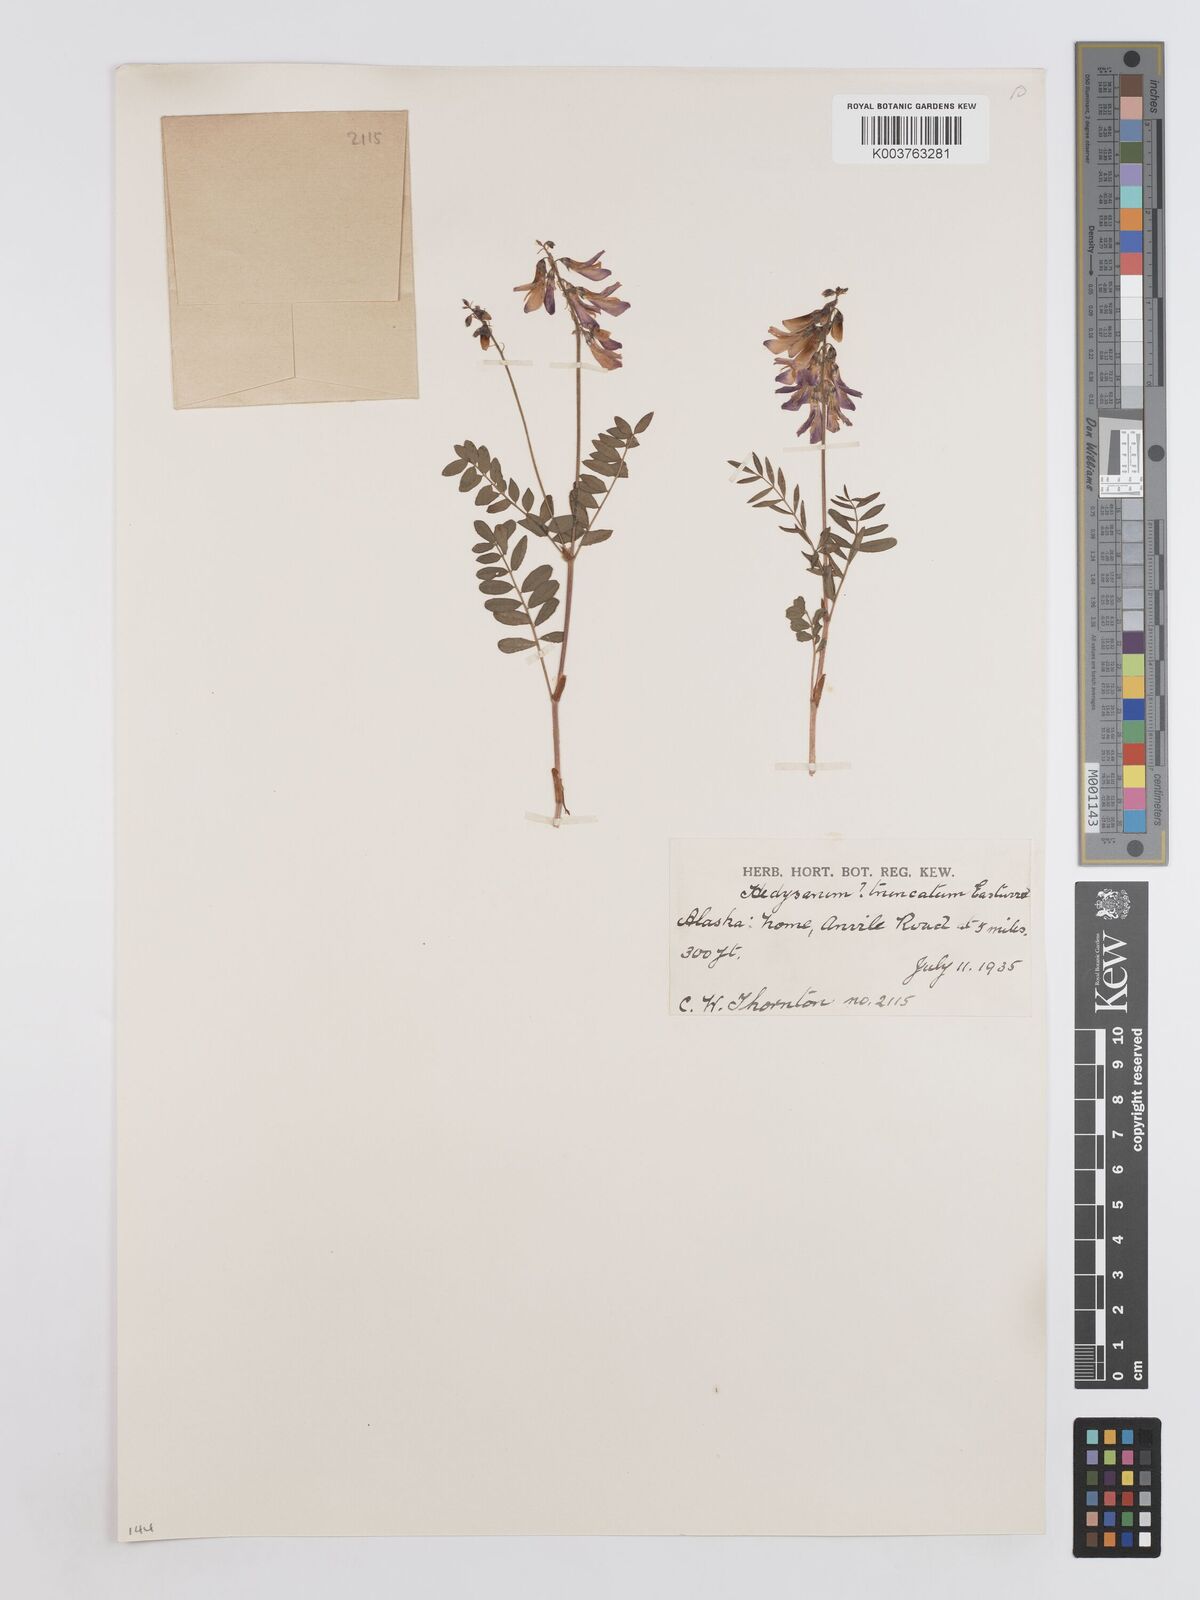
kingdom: Plantae
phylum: Tracheophyta
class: Magnoliopsida
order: Fabales
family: Fabaceae
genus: Hedysarum
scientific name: Hedysarum alpinum
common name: Alpine sweet-vetch
